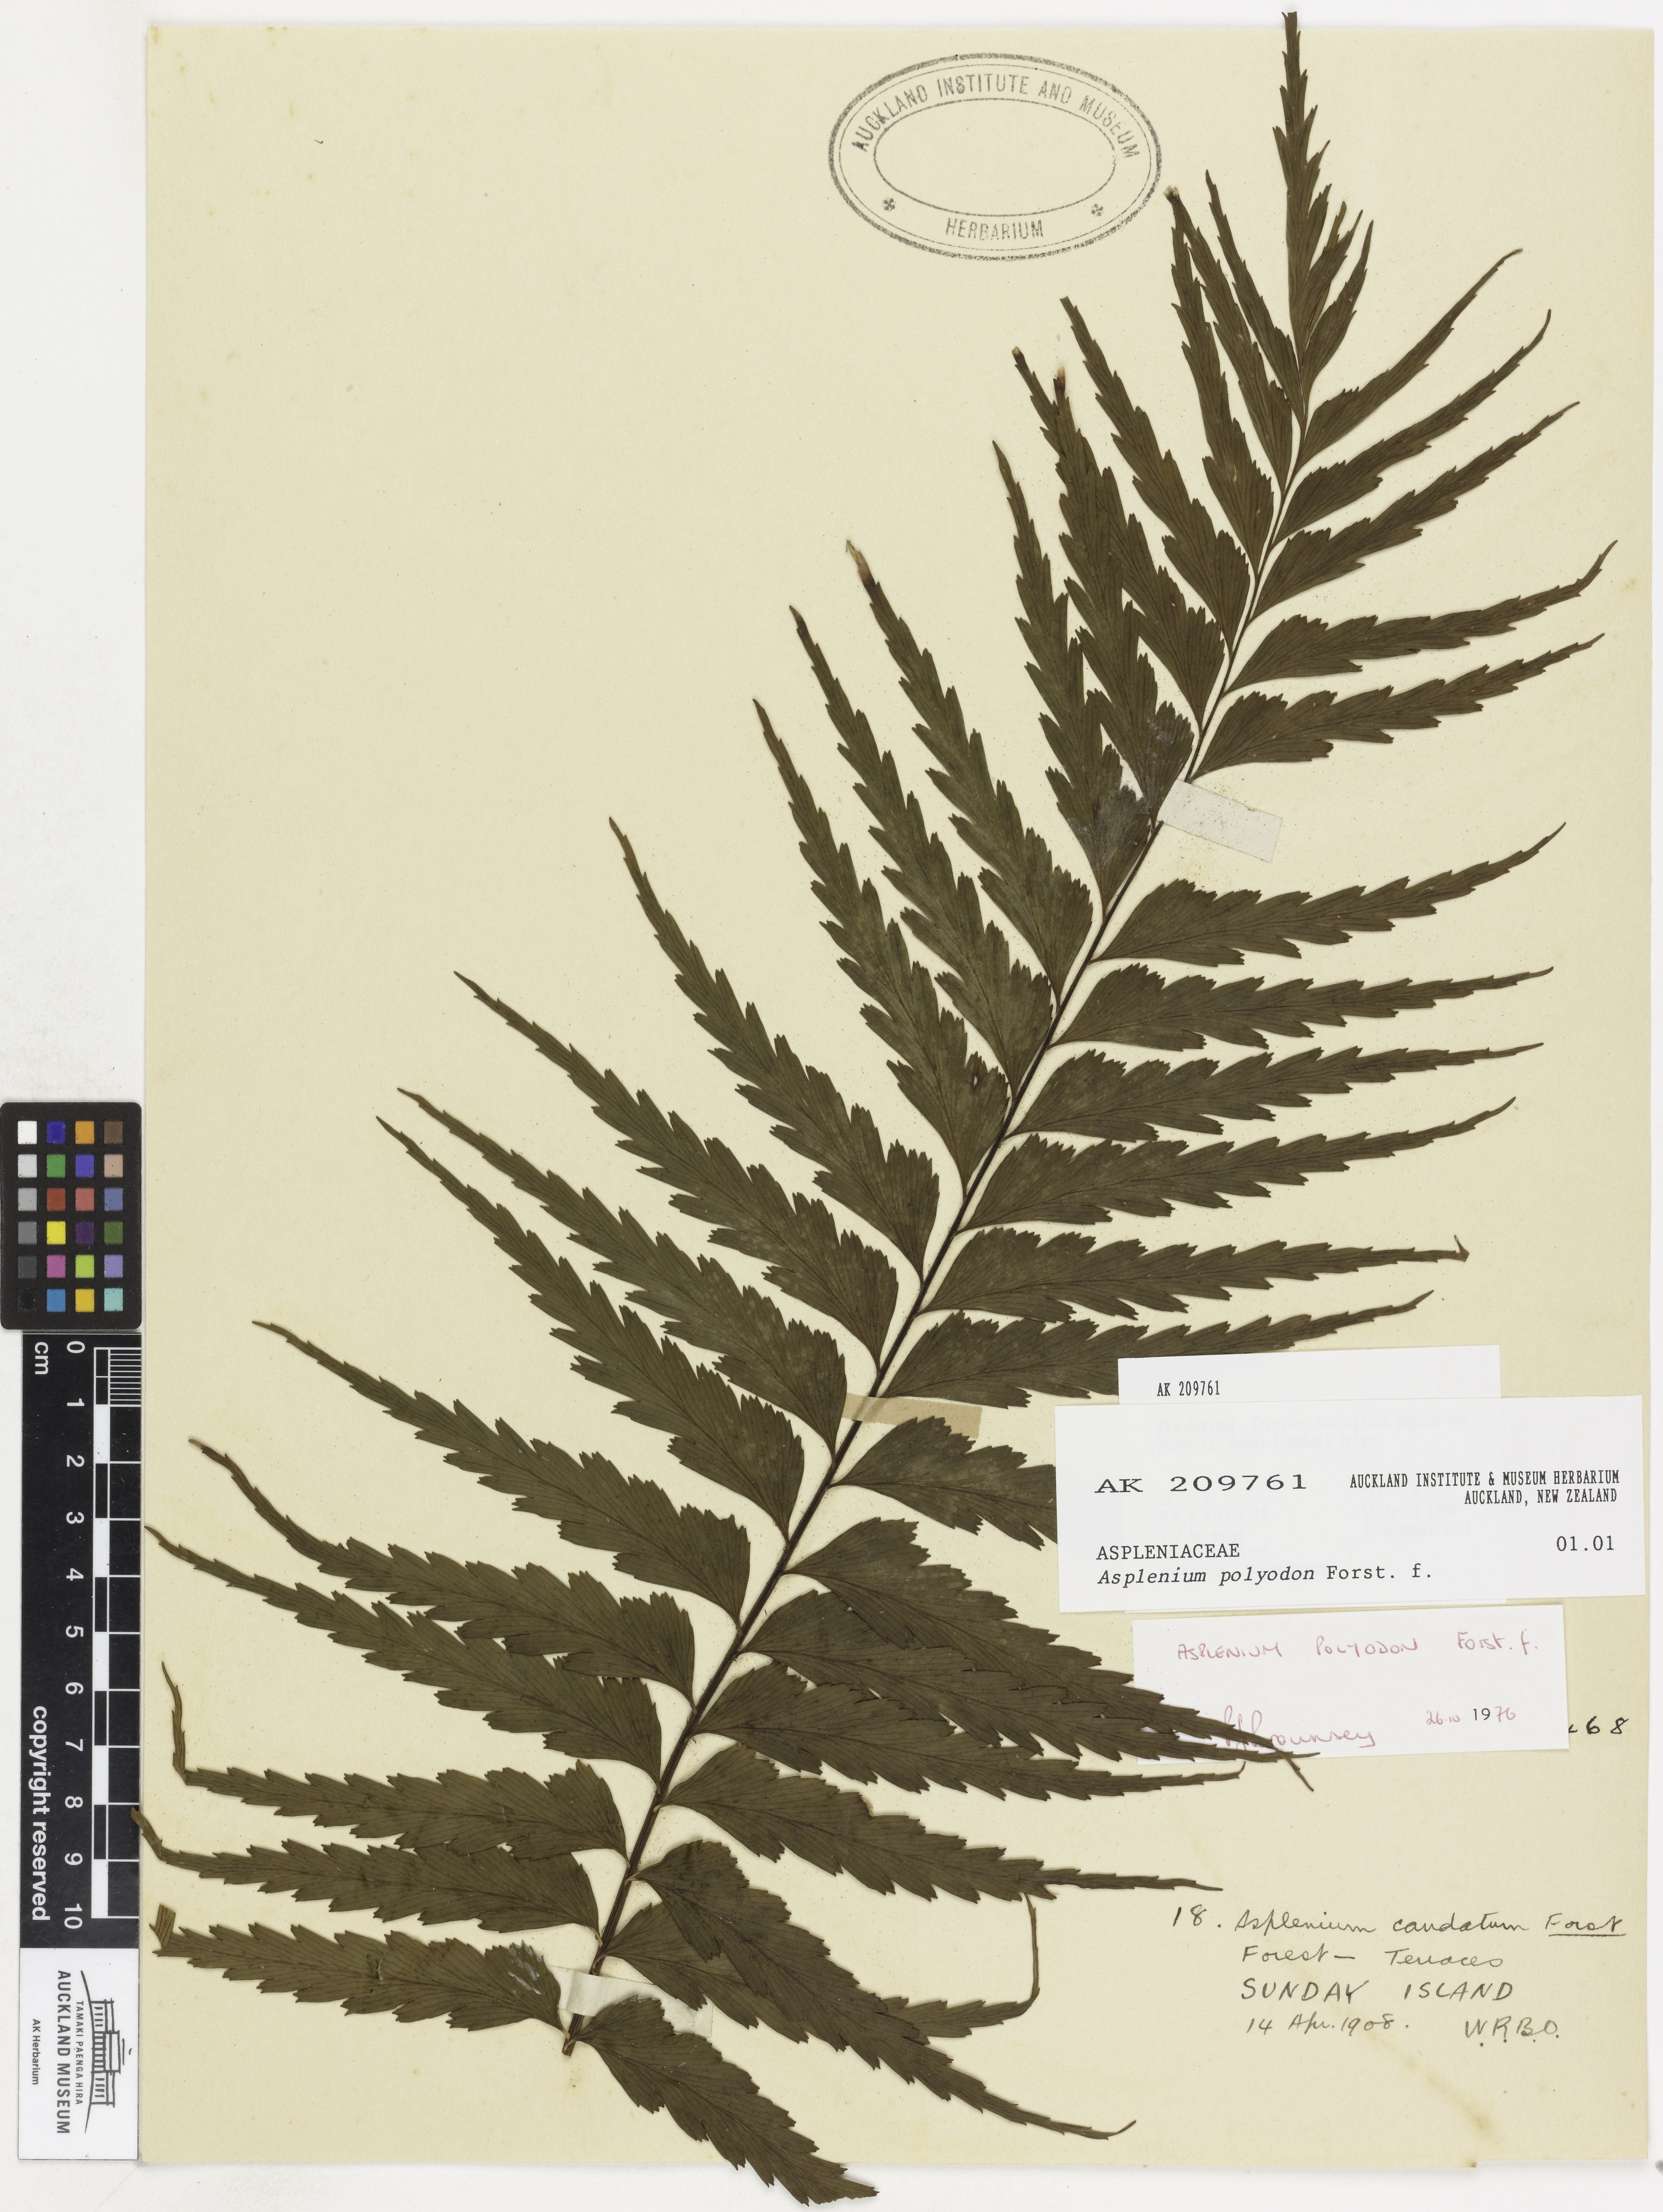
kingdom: Plantae
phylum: Tracheophyta
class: Polypodiopsida
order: Polypodiales
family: Aspleniaceae
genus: Asplenium
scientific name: Asplenium polyodon
